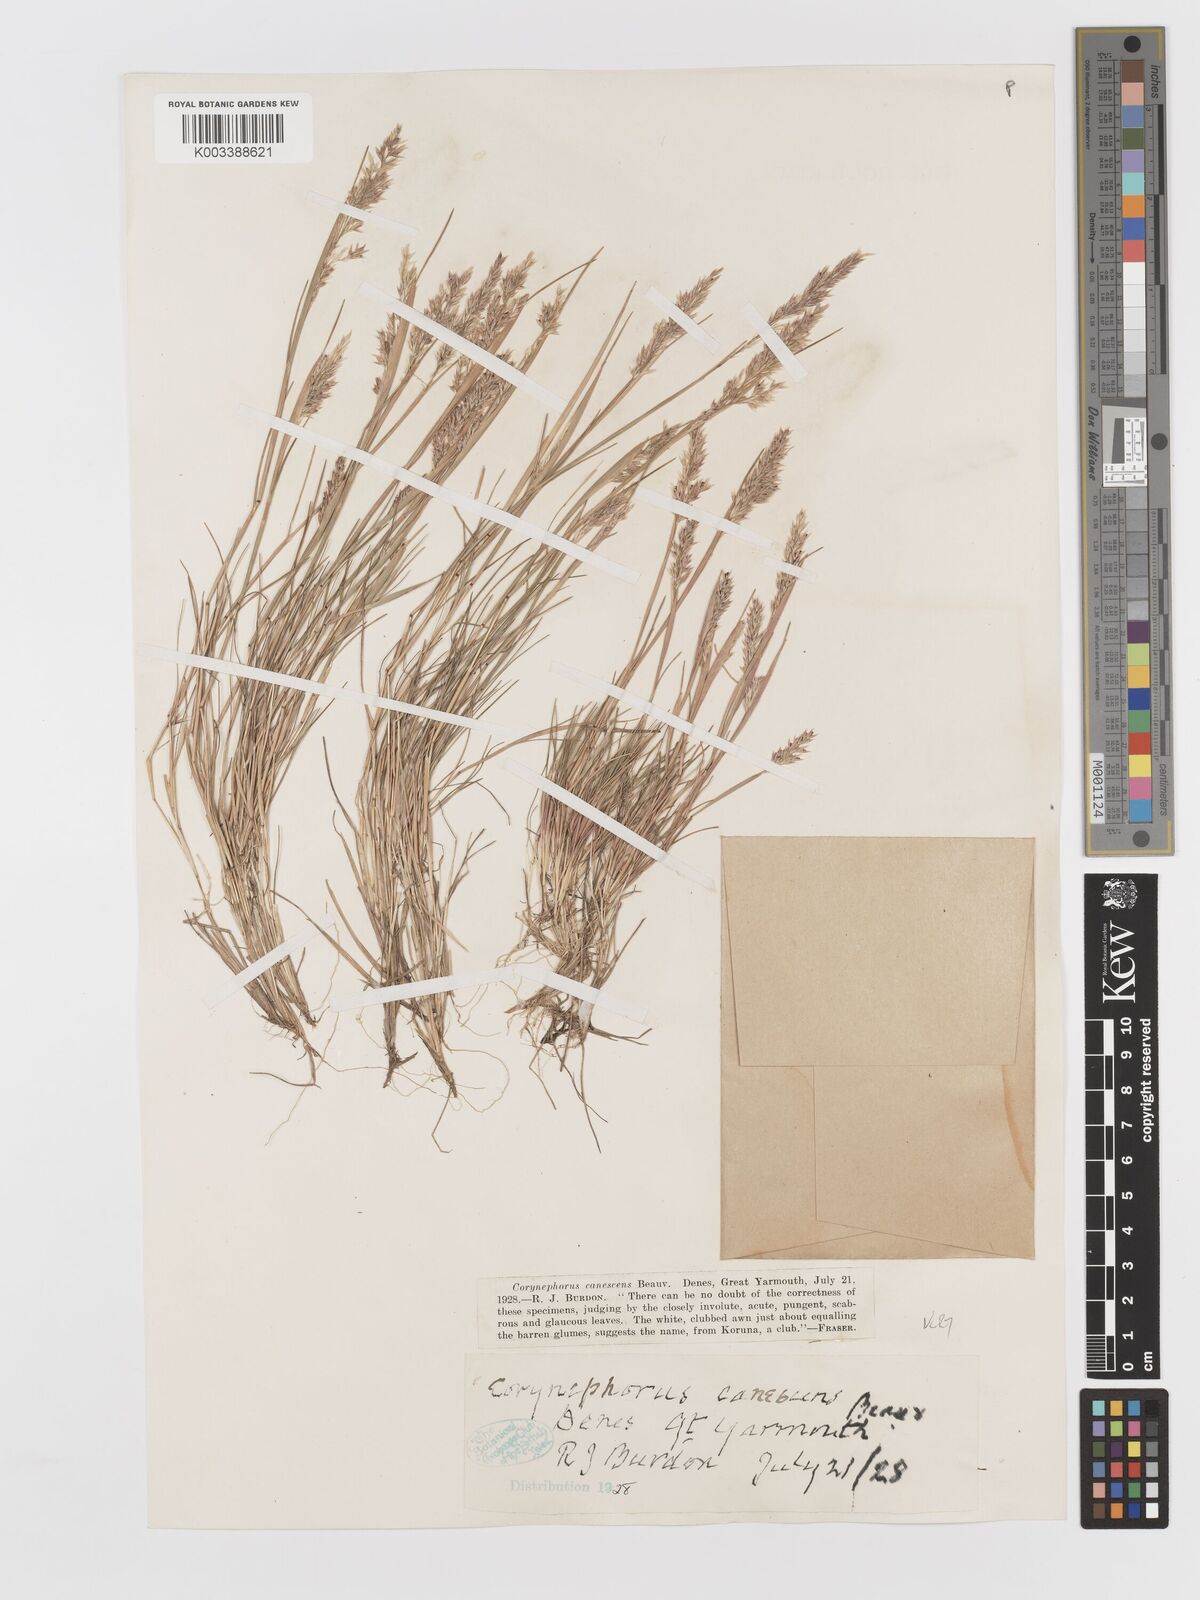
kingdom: Plantae
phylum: Tracheophyta
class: Liliopsida
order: Poales
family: Poaceae
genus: Corynephorus
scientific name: Corynephorus canescens
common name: Grey hair-grass
